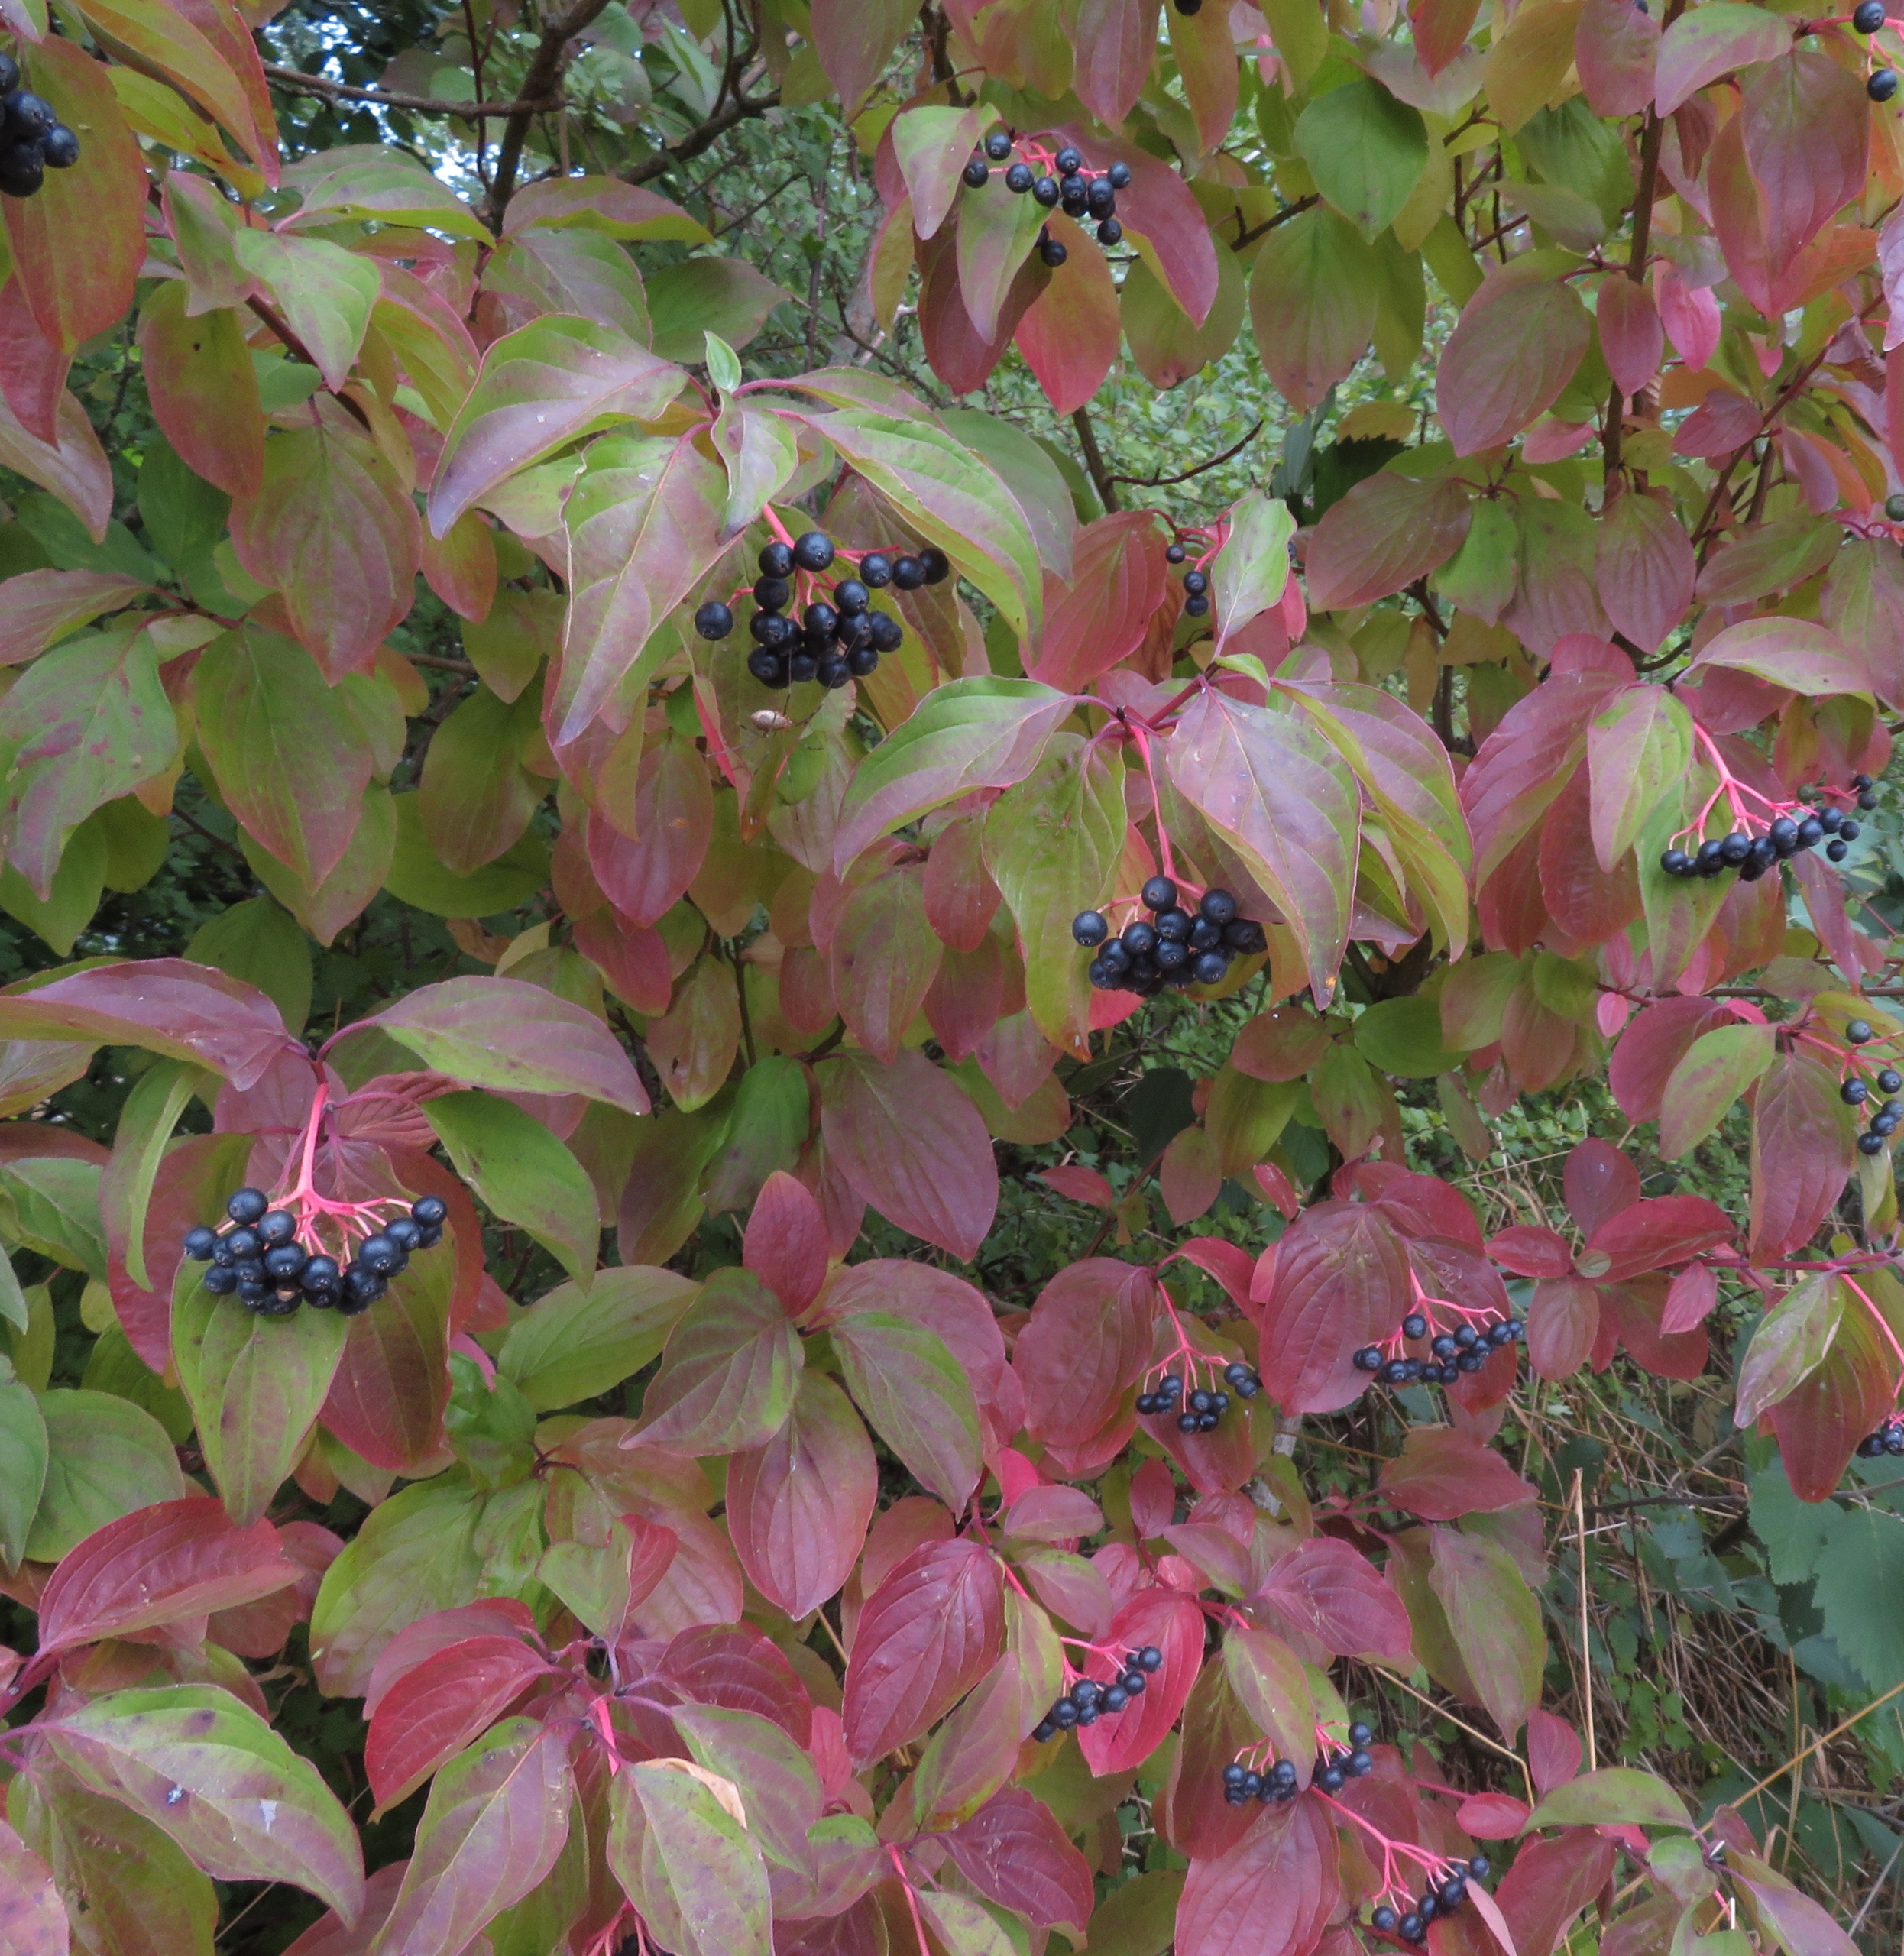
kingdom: Plantae
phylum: Tracheophyta
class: Magnoliopsida
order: Cornales
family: Cornaceae
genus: Cornus
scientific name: Cornus sanguinea
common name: Rød kornel
